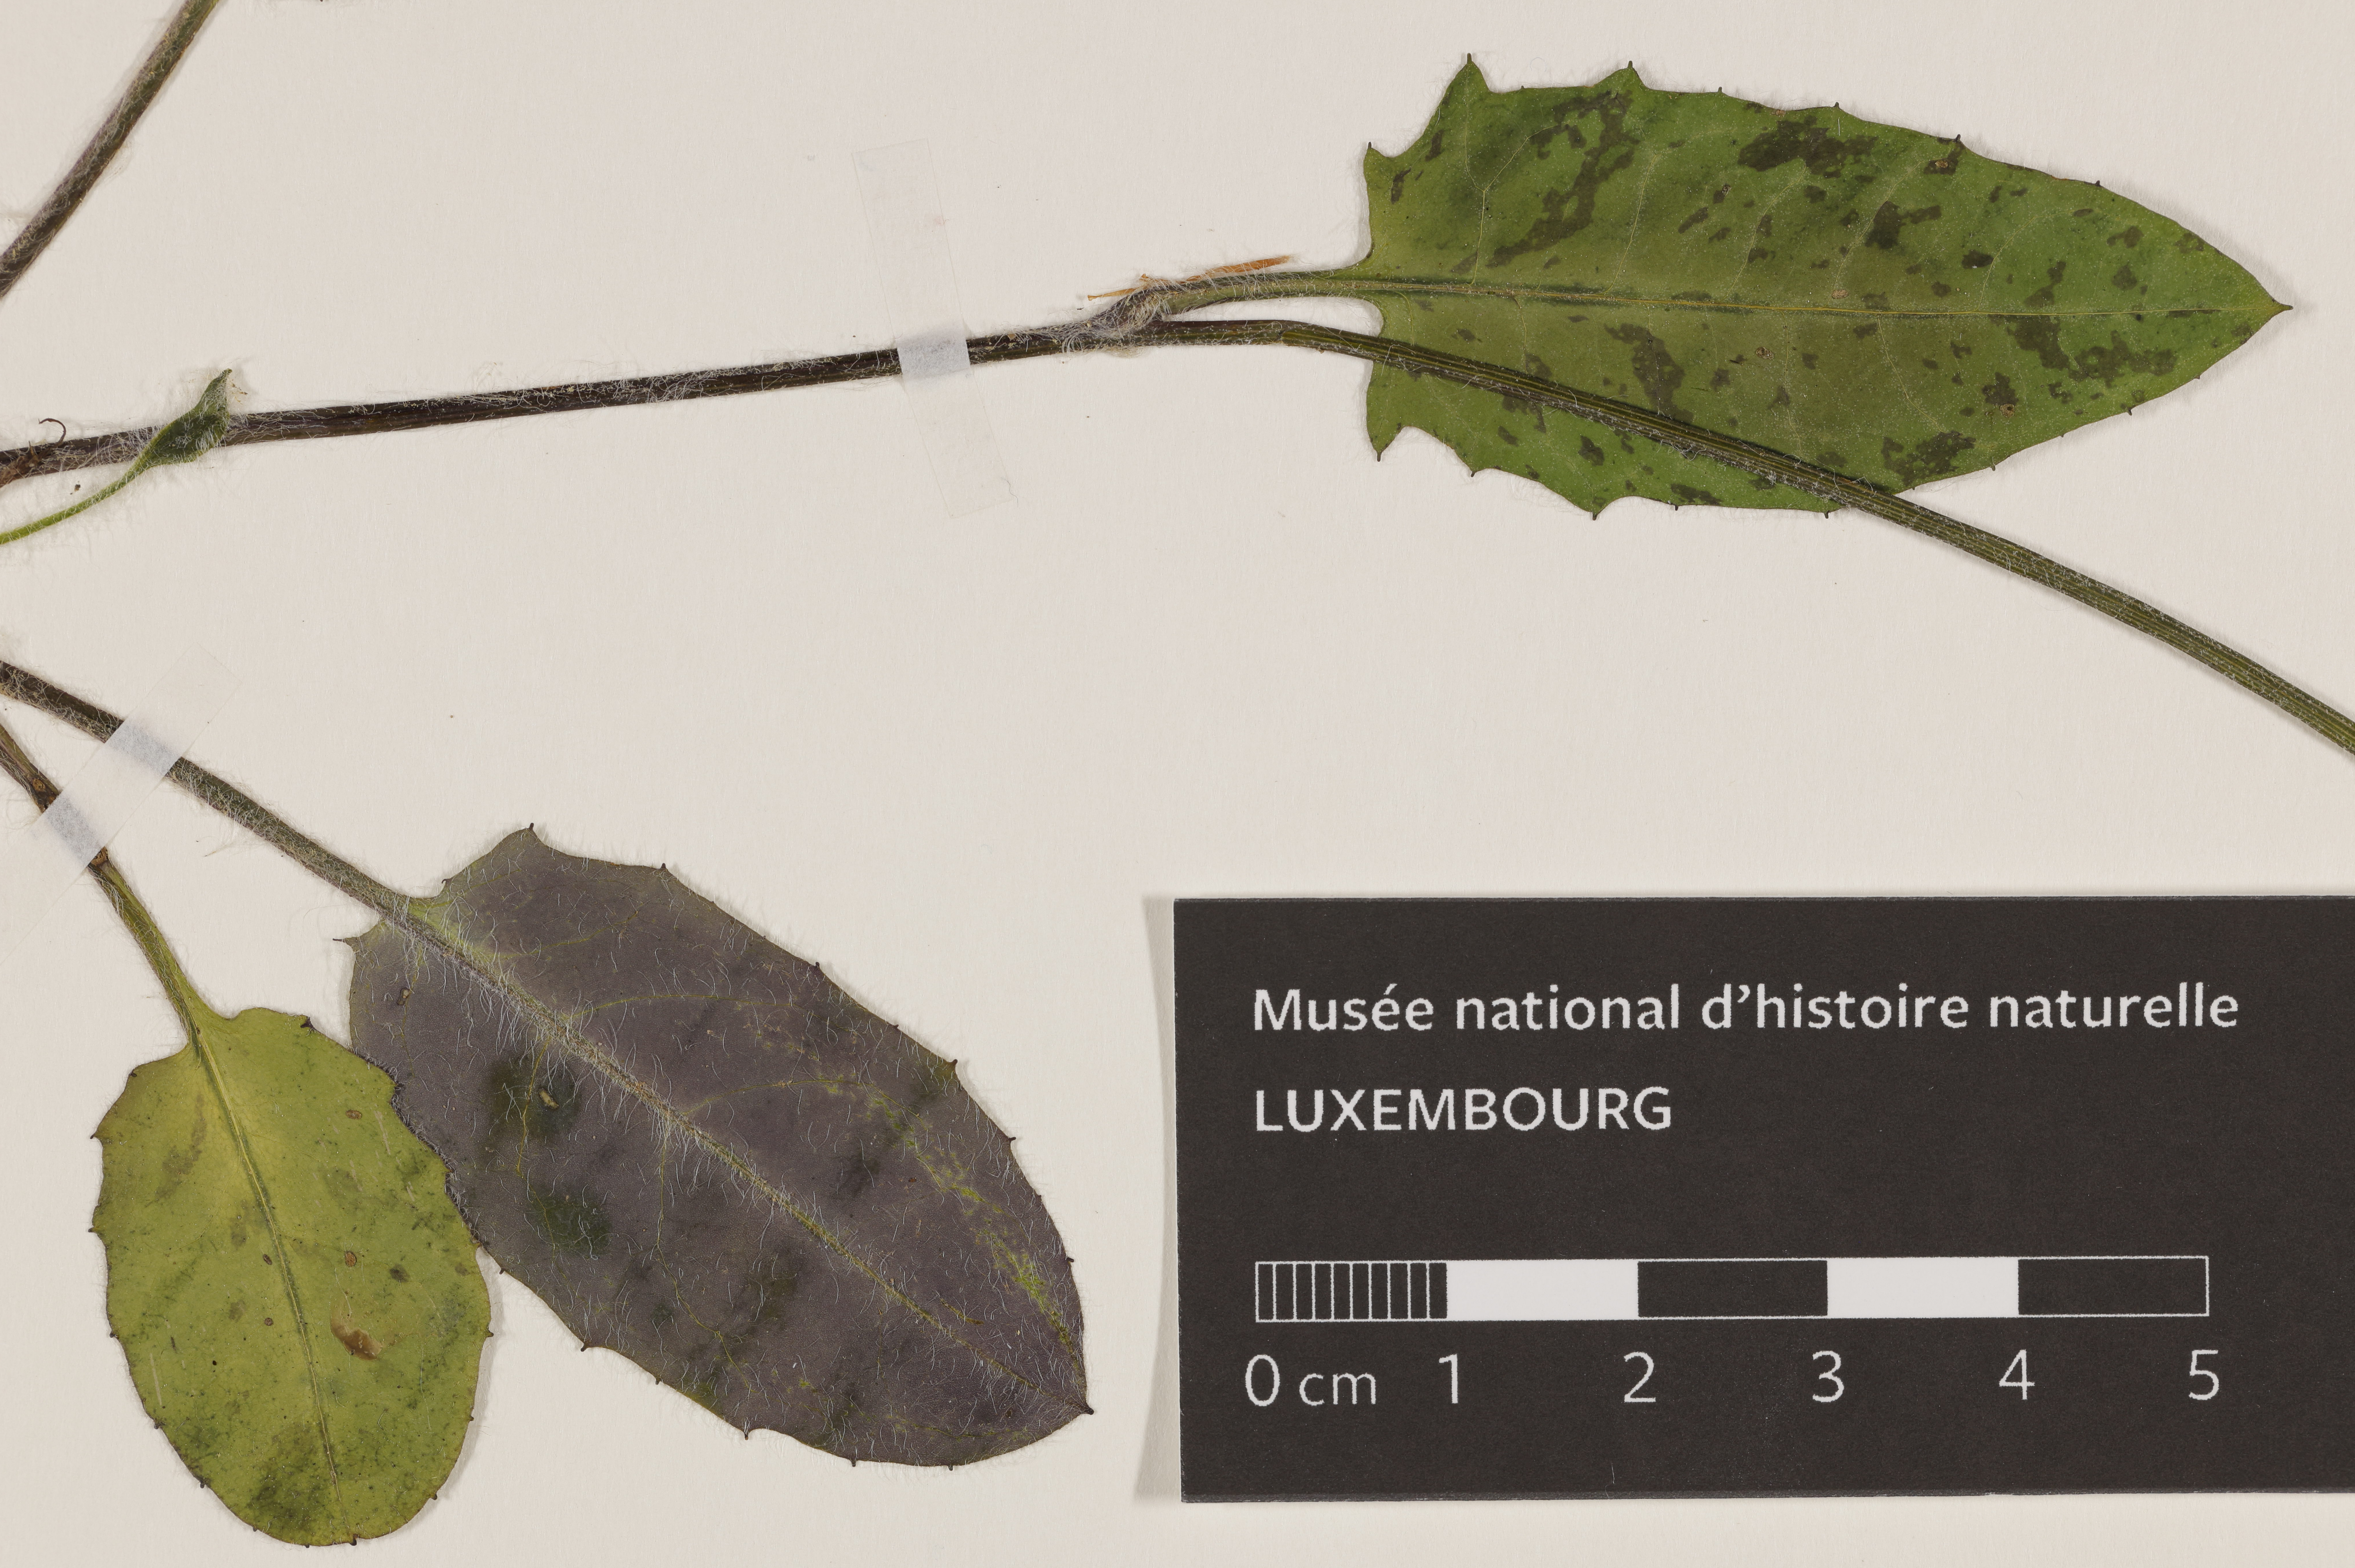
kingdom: Plantae
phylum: Tracheophyta
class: Magnoliopsida
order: Asterales
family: Asteraceae
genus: Hieracium
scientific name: Hieracium
